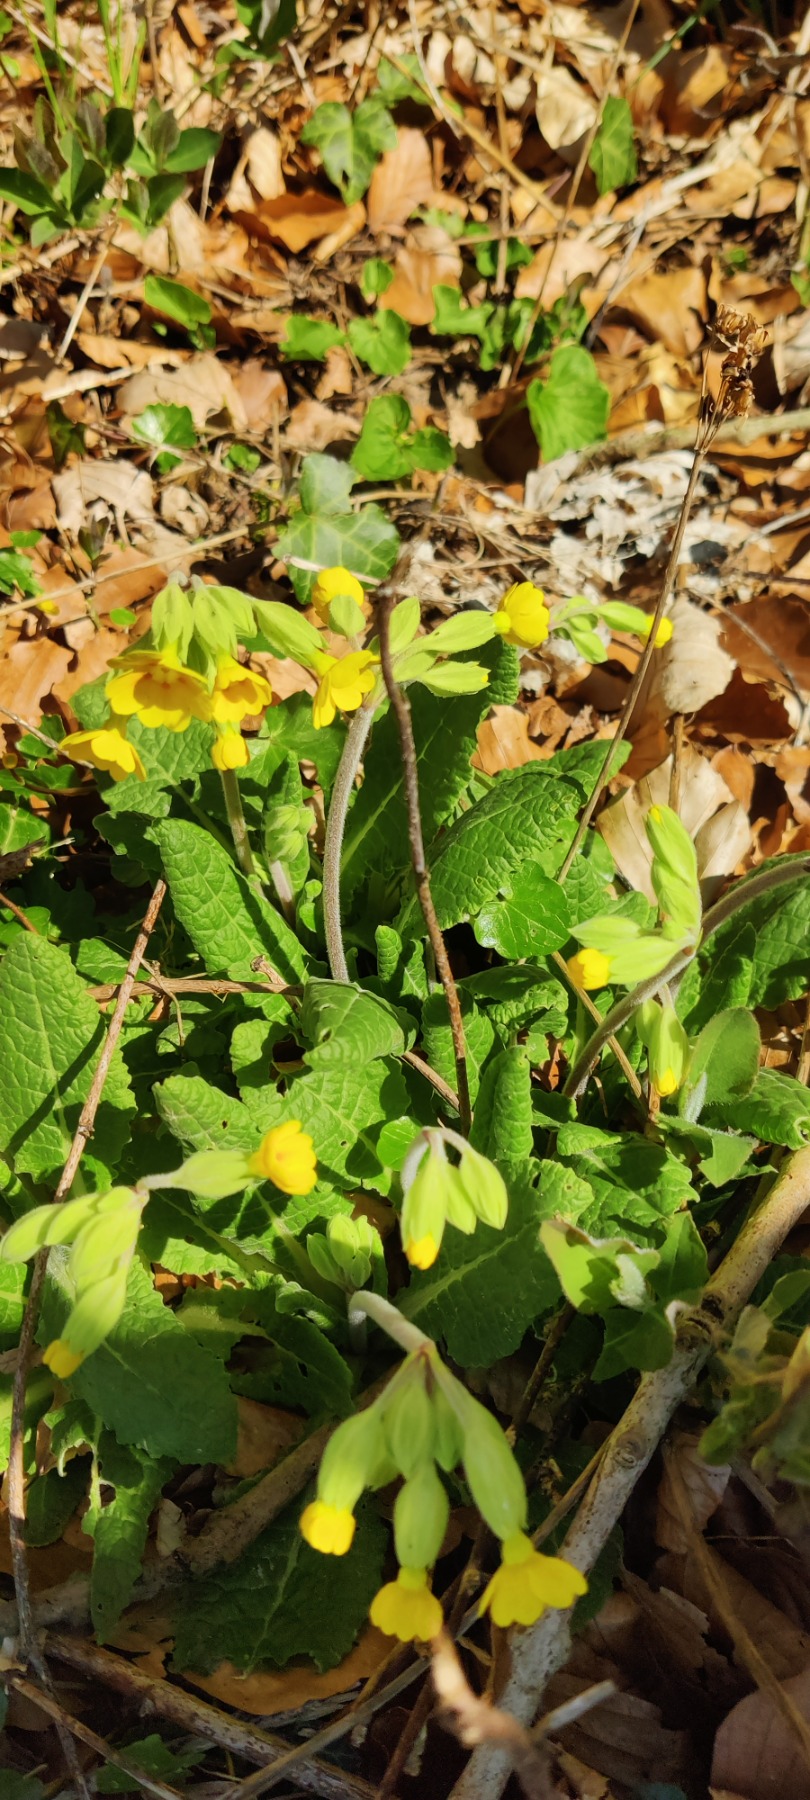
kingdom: Plantae
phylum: Tracheophyta
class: Magnoliopsida
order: Ericales
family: Primulaceae
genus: Primula
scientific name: Primula veris
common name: Hulkravet kodriver
